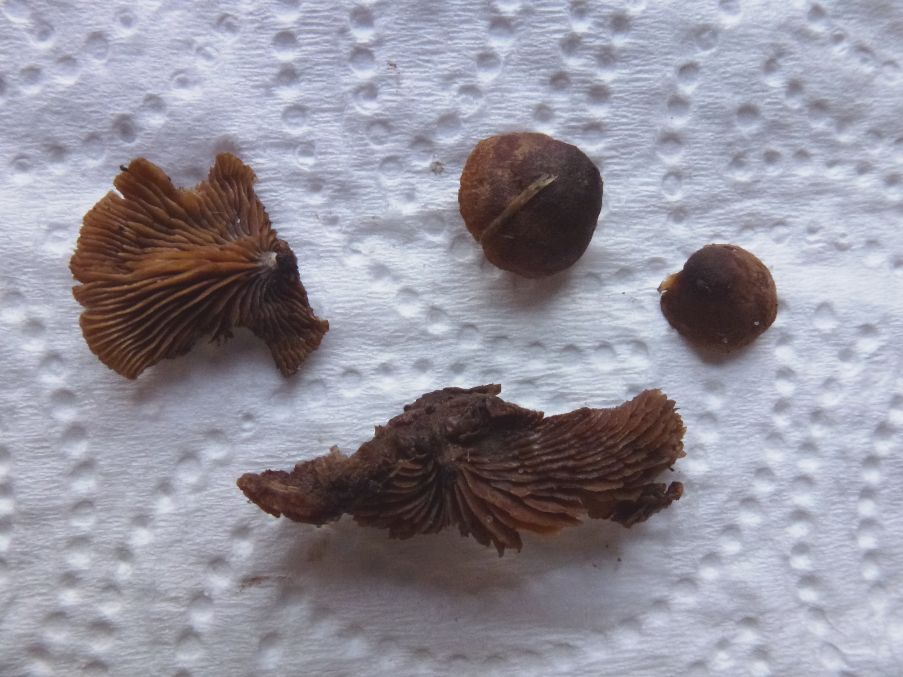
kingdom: Fungi
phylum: Basidiomycota
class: Agaricomycetes
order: Agaricales
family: Strophariaceae
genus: Deconica
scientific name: Deconica horizontalis
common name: ved-stråhat
